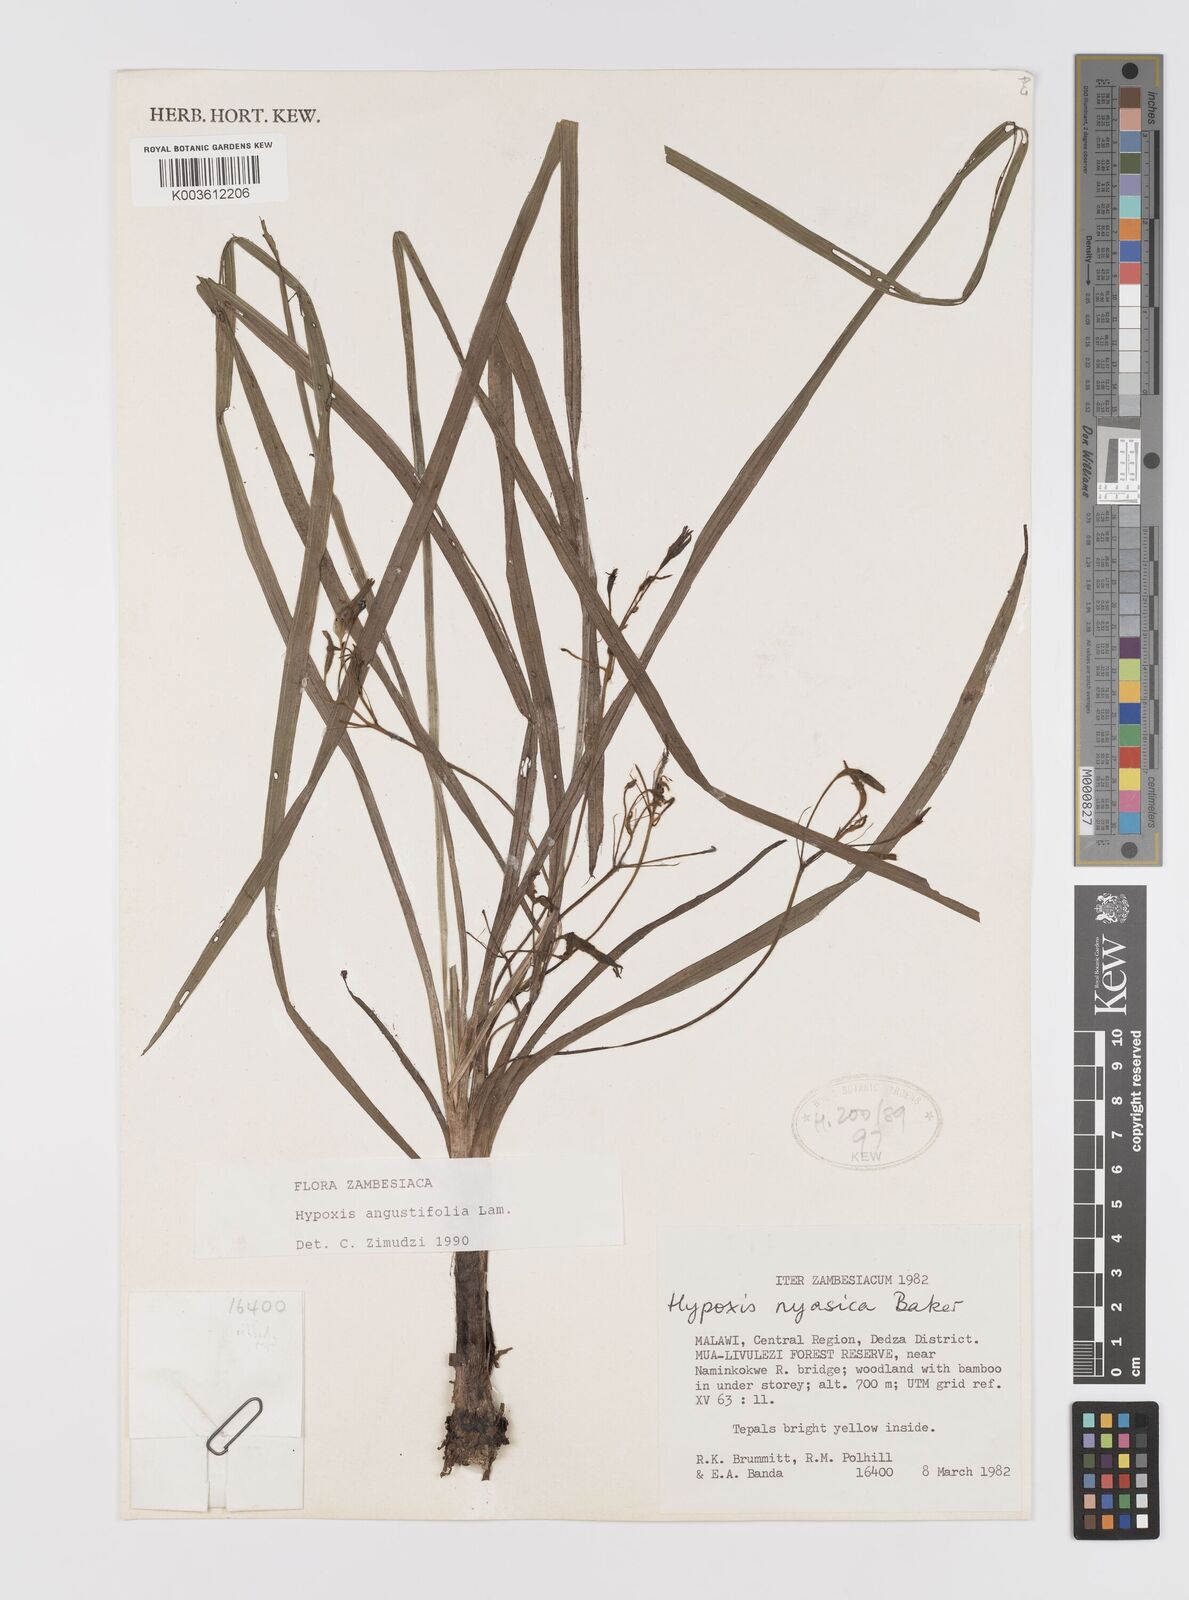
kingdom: Plantae
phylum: Tracheophyta
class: Liliopsida
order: Asparagales
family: Hypoxidaceae
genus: Hypoxis
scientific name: Hypoxis angustifolia
